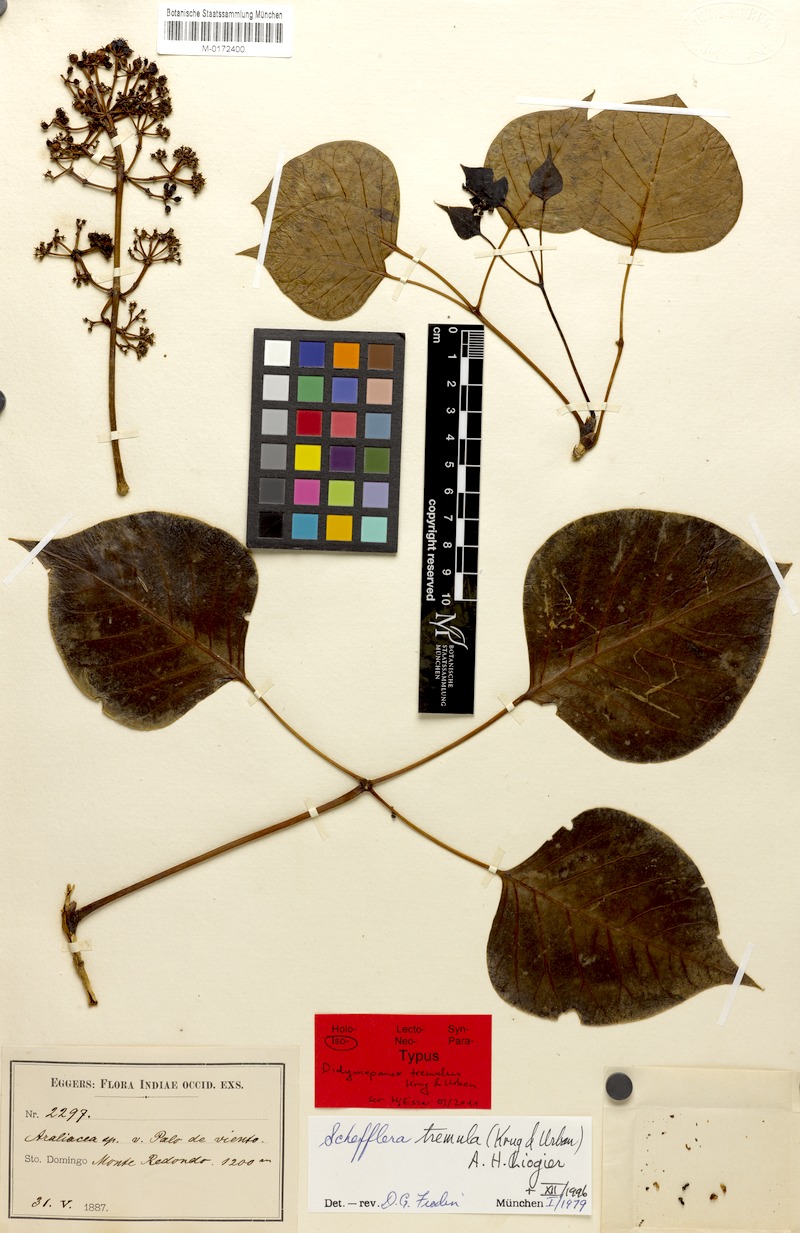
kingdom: Plantae
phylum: Tracheophyta
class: Magnoliopsida
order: Apiales
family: Araliaceae
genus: Frodinia
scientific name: Frodinia tremula
